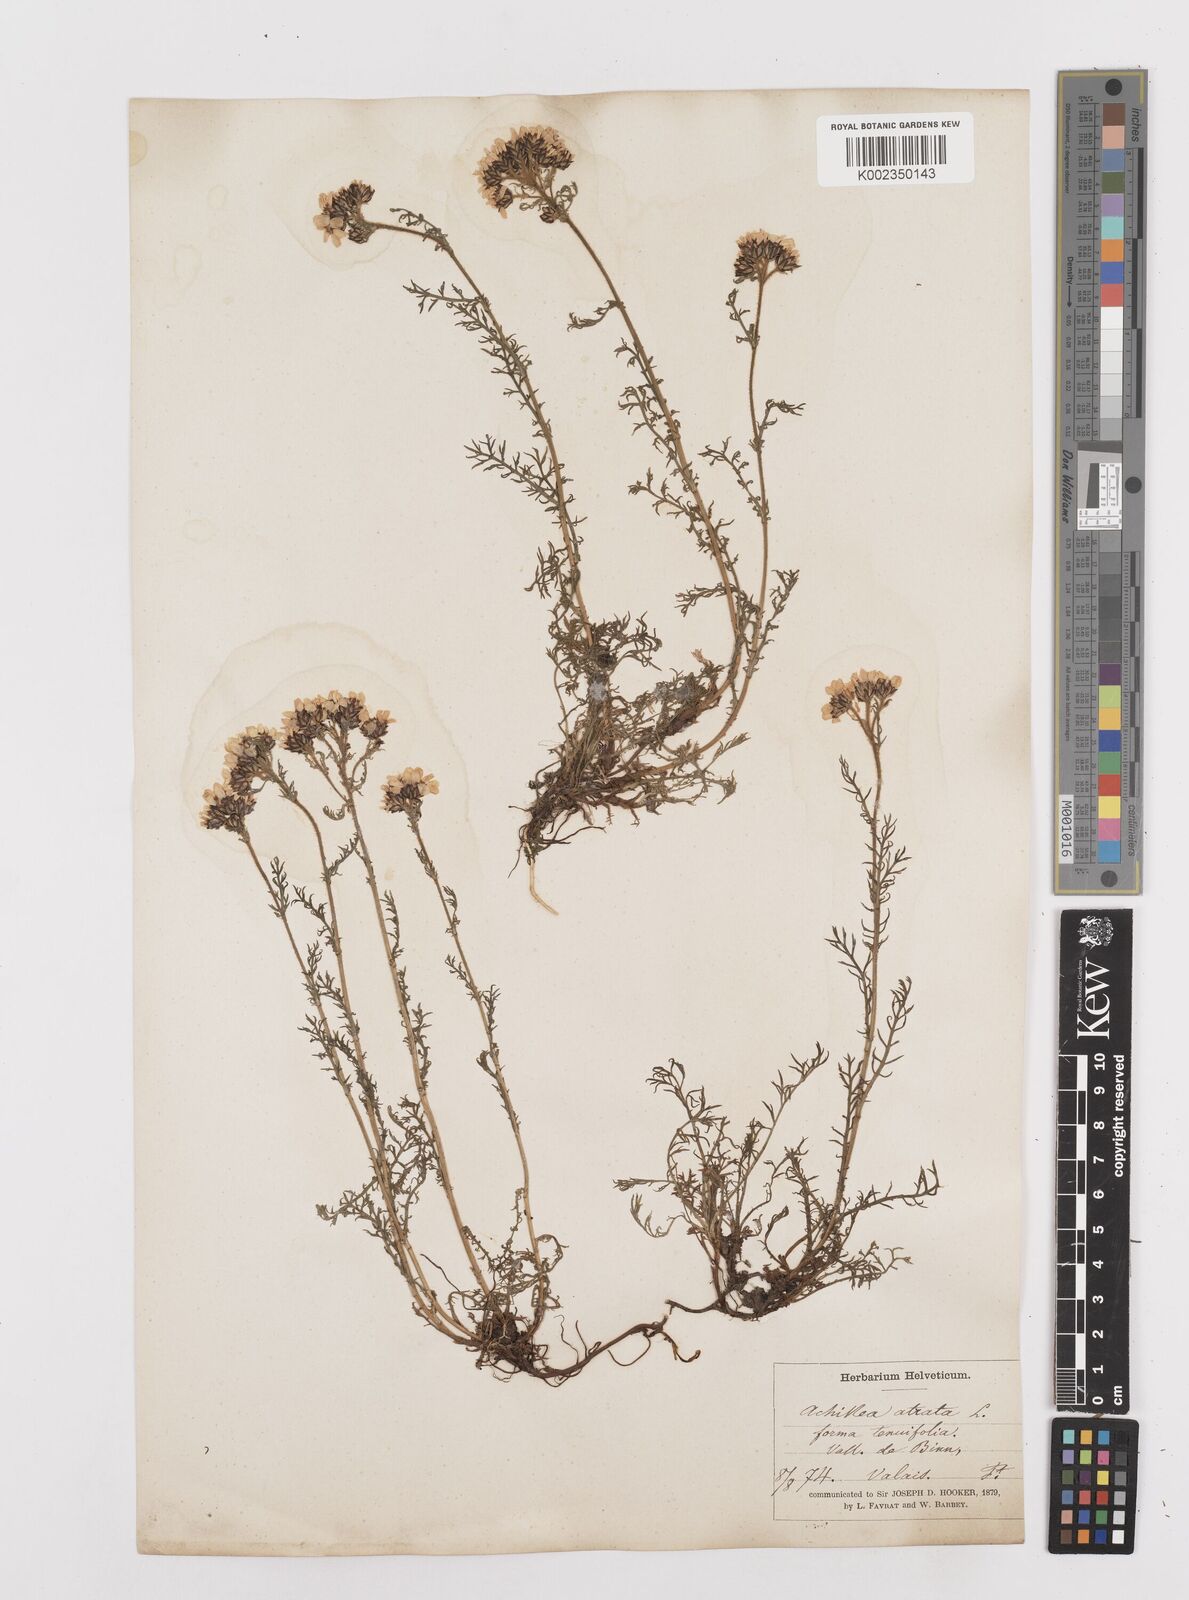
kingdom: Plantae
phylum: Tracheophyta
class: Magnoliopsida
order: Asterales
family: Asteraceae
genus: Achillea
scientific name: Achillea atrata
